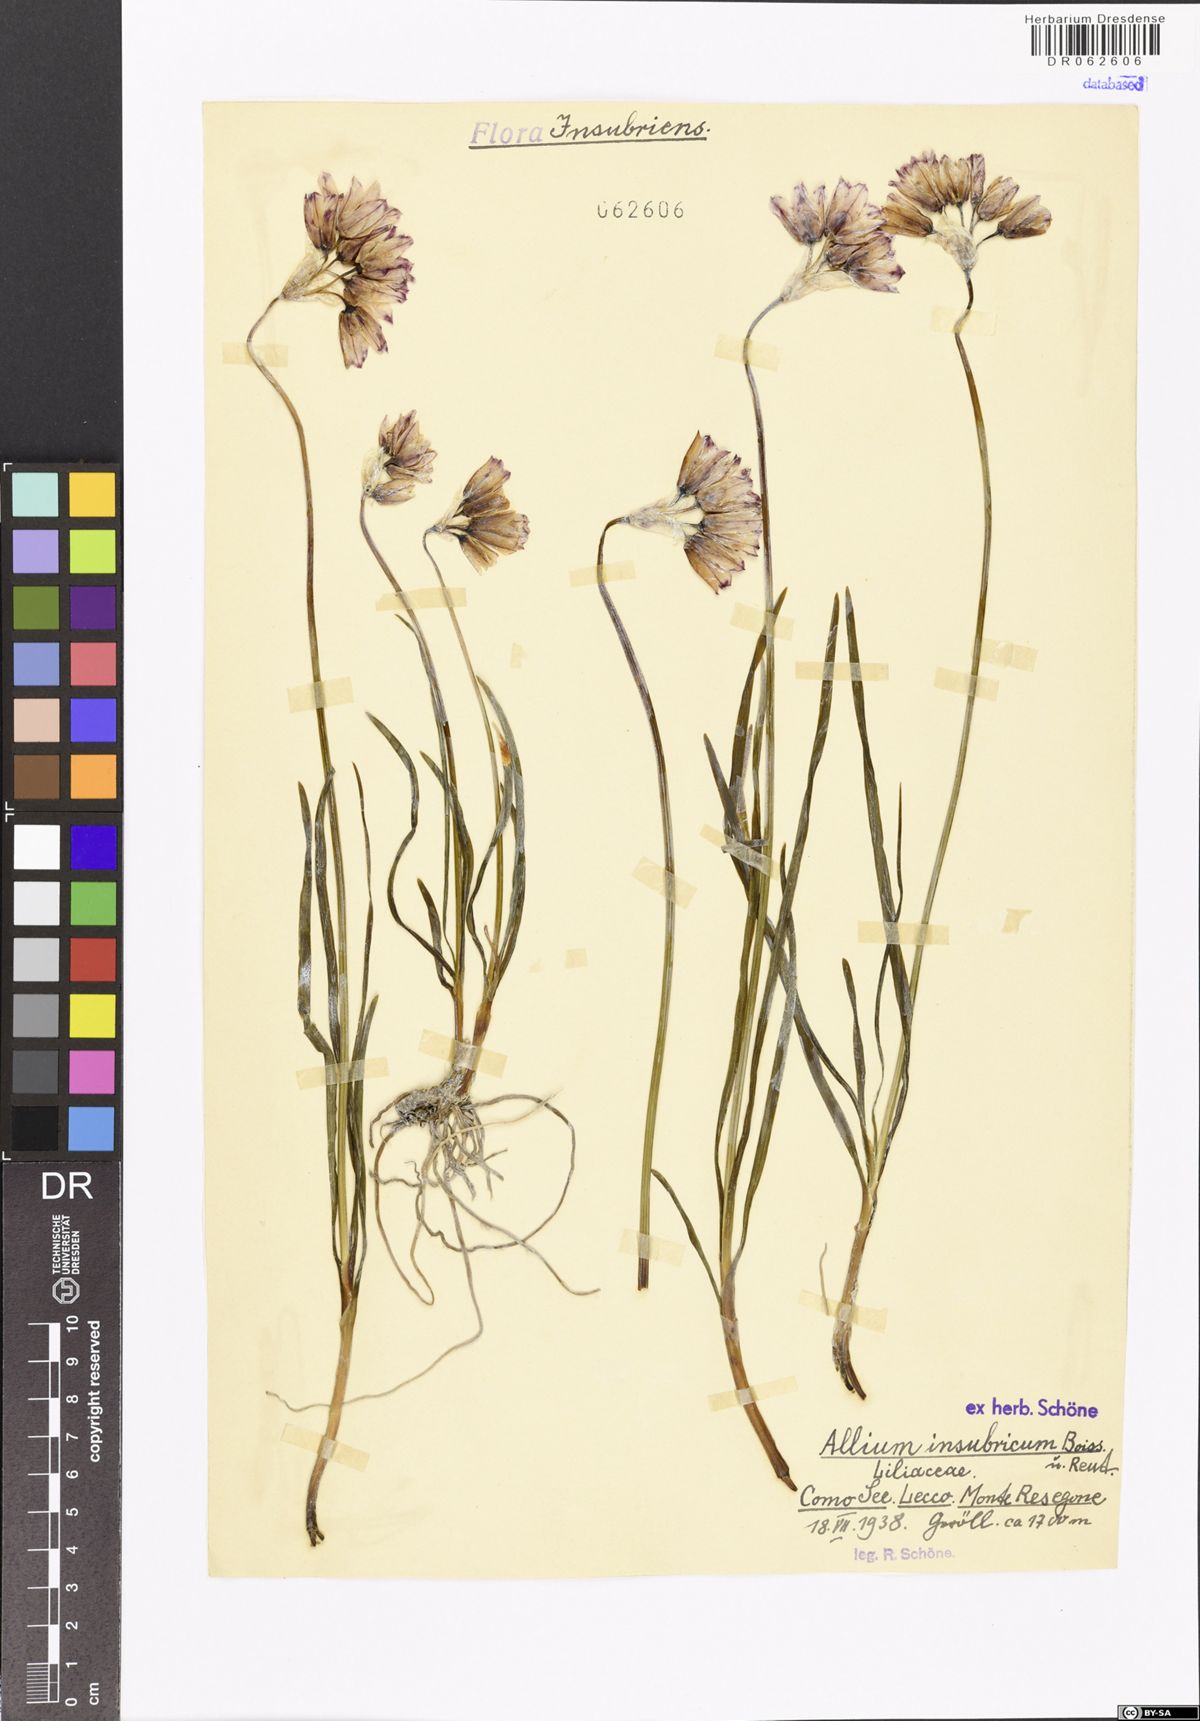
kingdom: Plantae
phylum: Tracheophyta
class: Liliopsida
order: Asparagales
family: Amaryllidaceae
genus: Allium
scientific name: Allium insubricum
